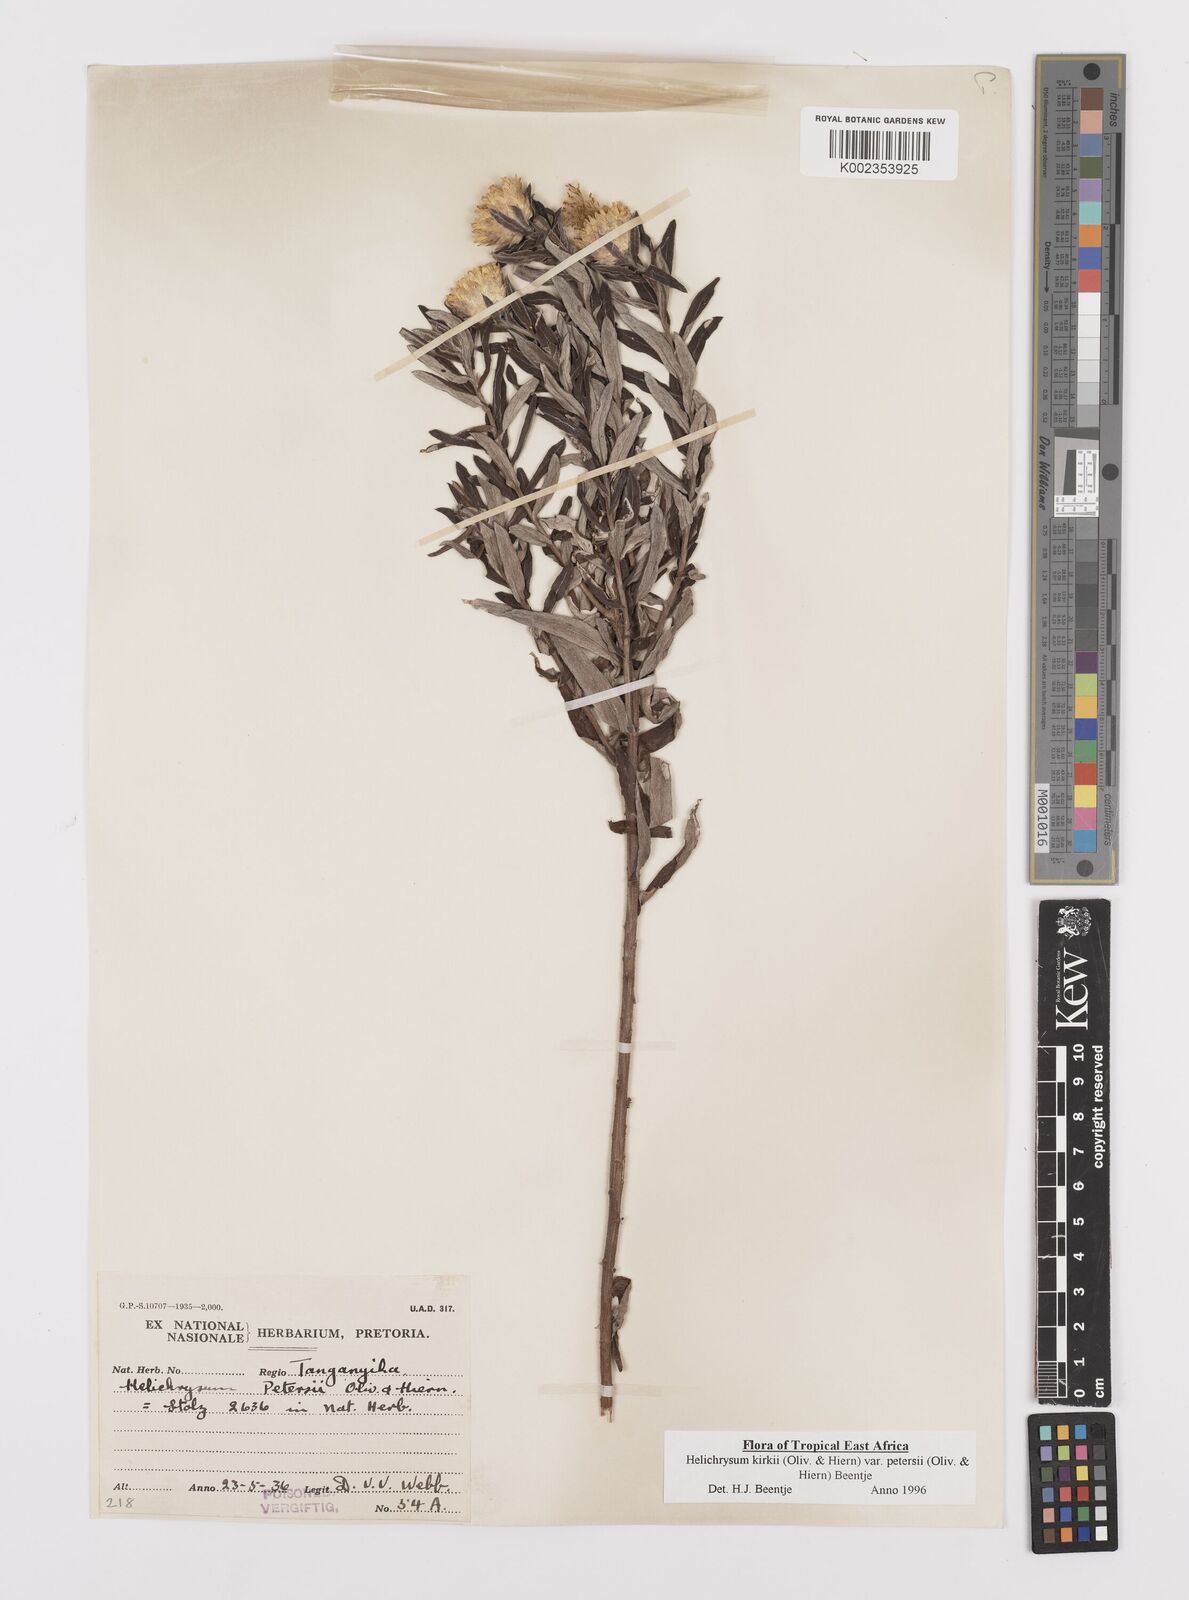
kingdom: Plantae
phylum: Tracheophyta
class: Magnoliopsida
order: Asterales
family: Asteraceae
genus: Helichrysum
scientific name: Helichrysum kirkii
